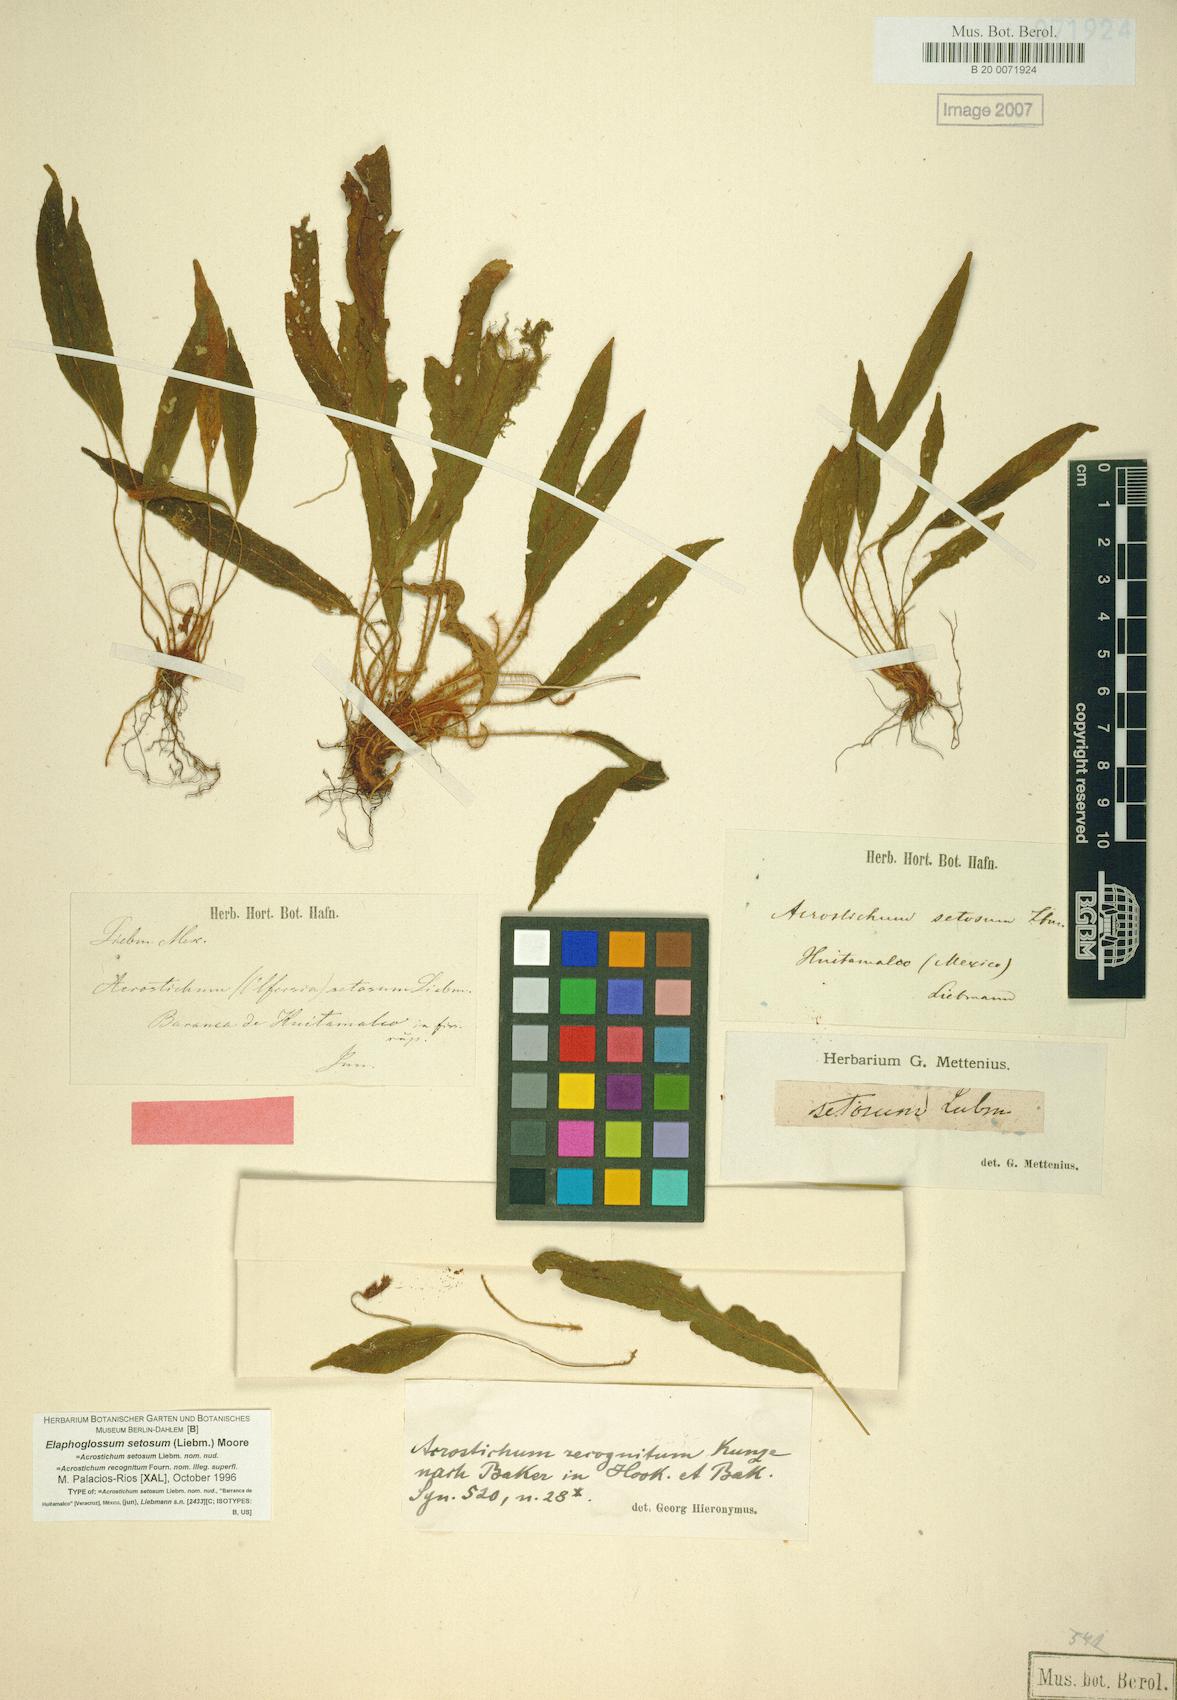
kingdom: Plantae
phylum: Tracheophyta
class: Polypodiopsida
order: Polypodiales
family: Dryopteridaceae
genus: Elaphoglossum
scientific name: Elaphoglossum setosum
